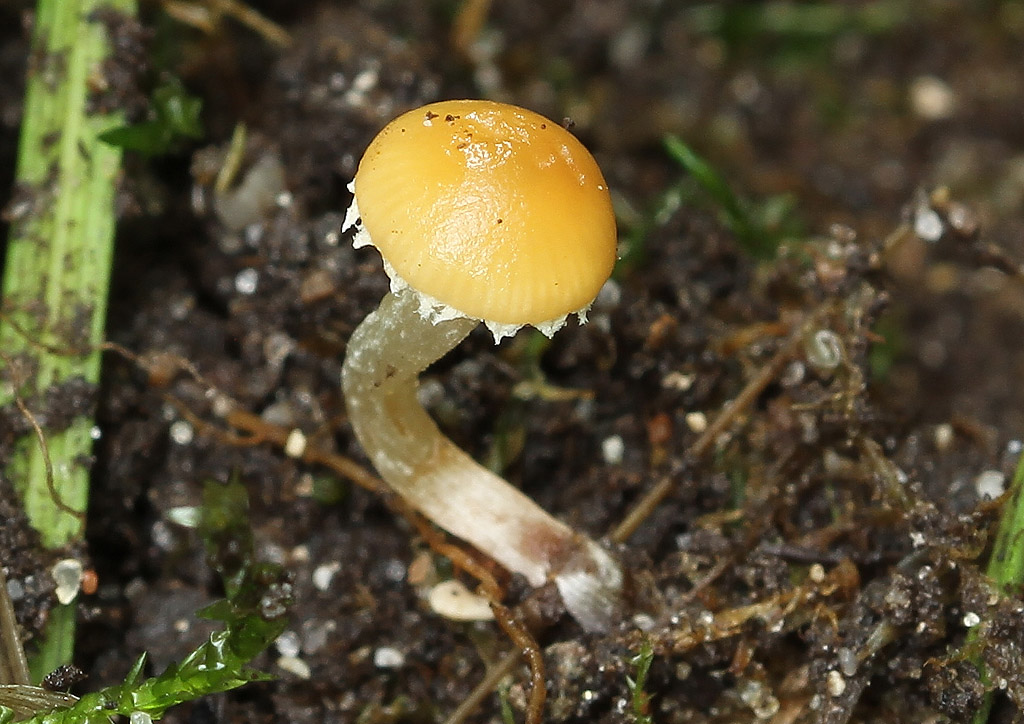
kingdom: Fungi
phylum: Basidiomycota
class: Agaricomycetes
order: Agaricales
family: Bolbitiaceae
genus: Conocybe
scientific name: Conocybe velata
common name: tandet dansehat
